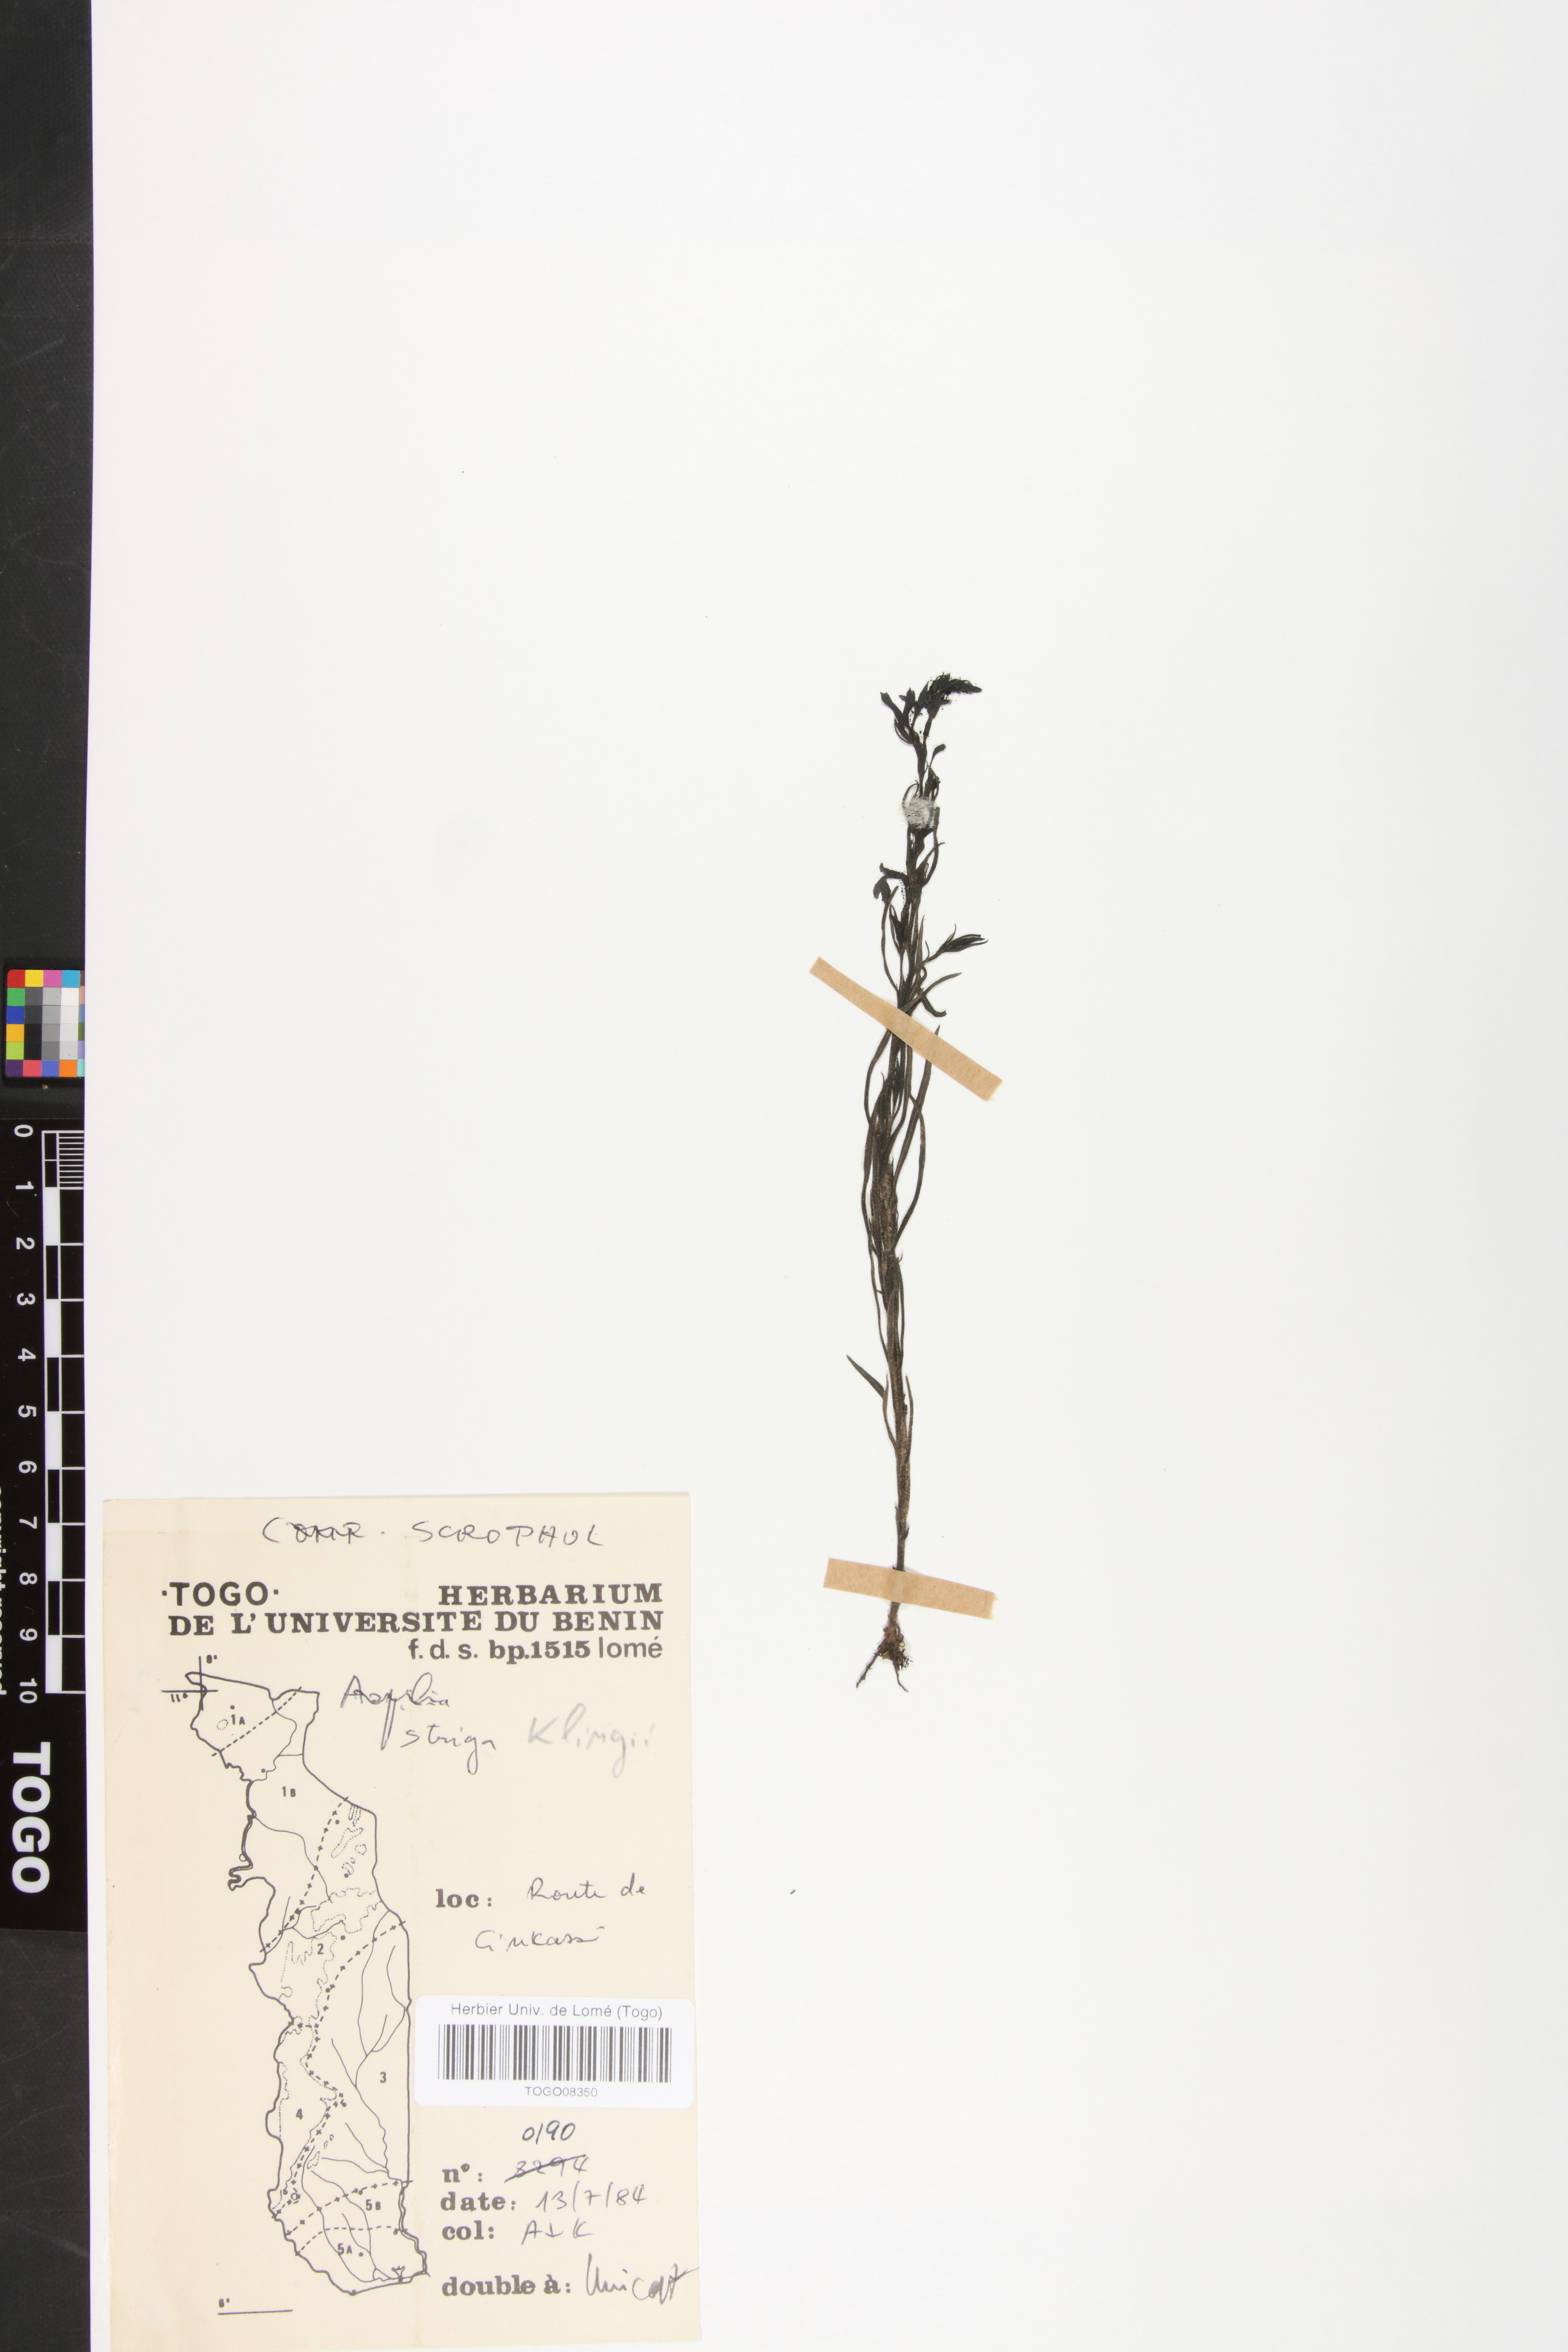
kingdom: Plantae
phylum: Tracheophyta
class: Magnoliopsida
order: Lamiales
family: Orobanchaceae
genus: Striga
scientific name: Striga gesnerioides
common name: Cowpea witchweed
